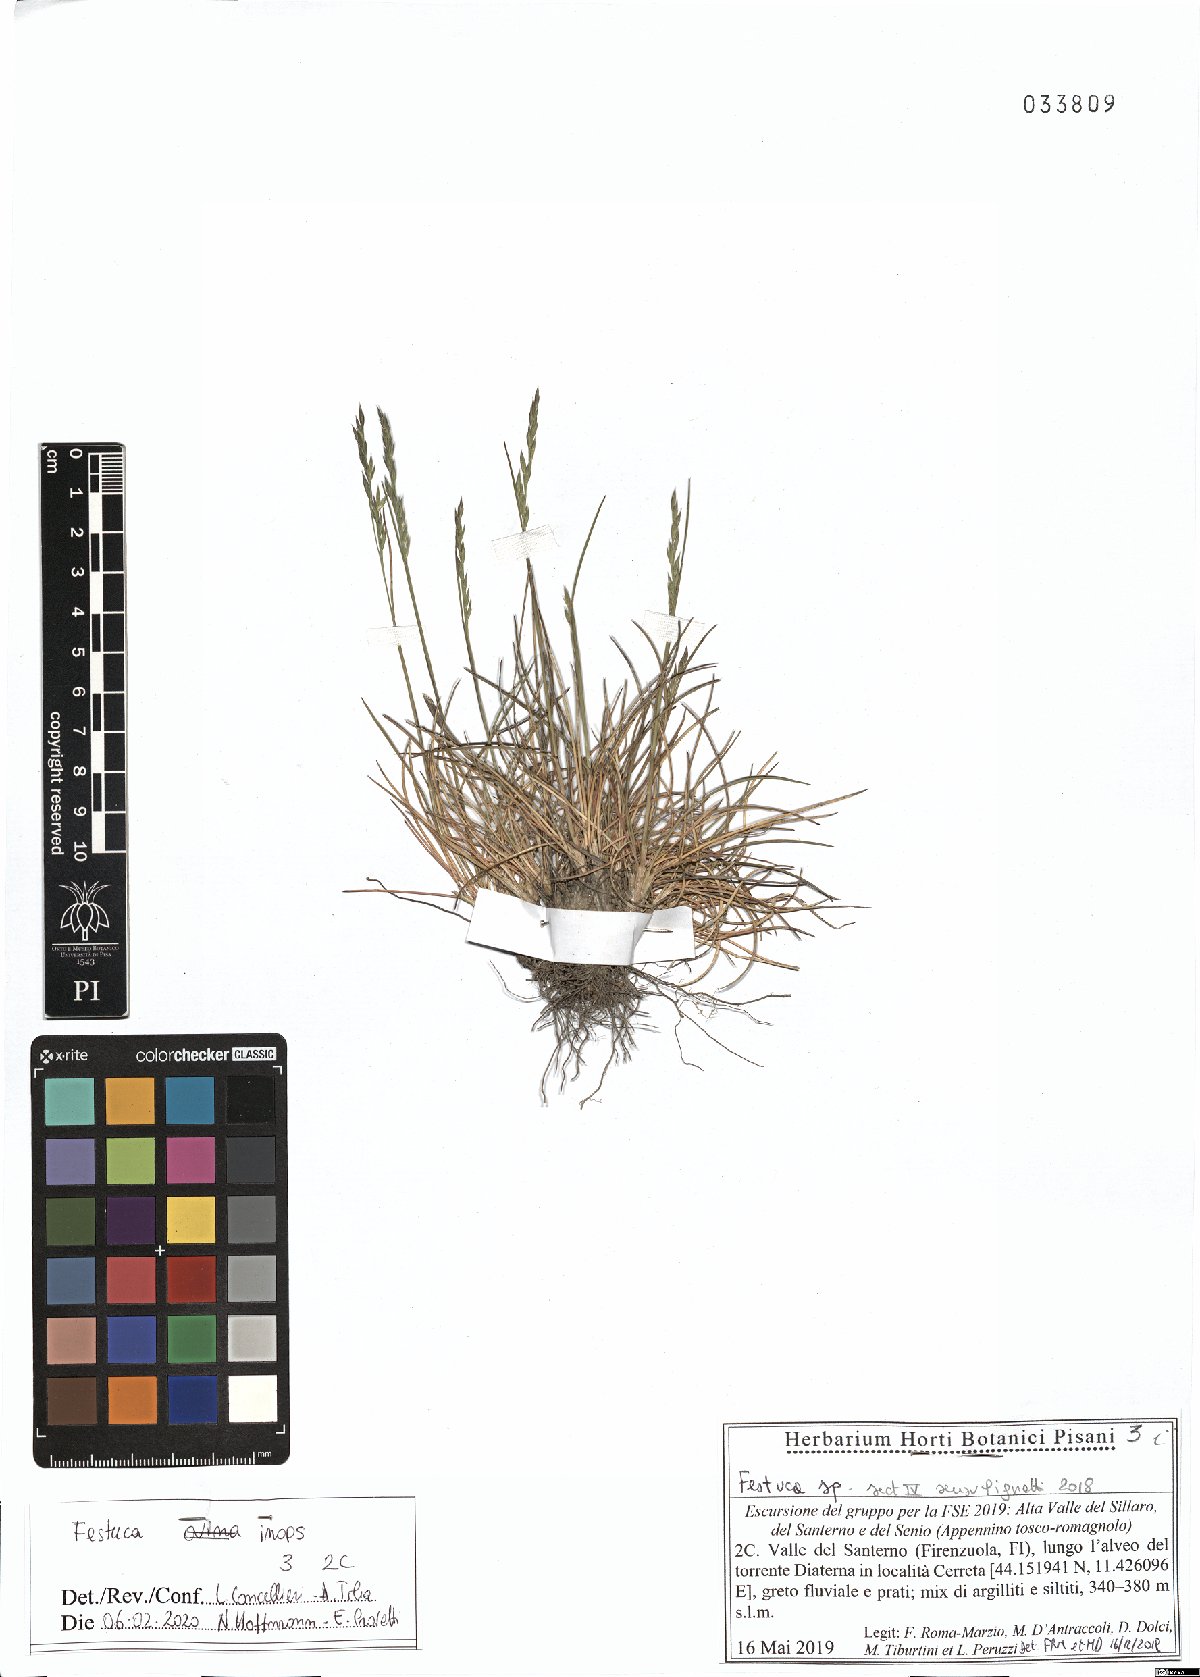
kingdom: Plantae
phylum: Tracheophyta
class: Liliopsida
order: Poales
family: Poaceae
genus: Festuca
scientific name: Festuca inops
